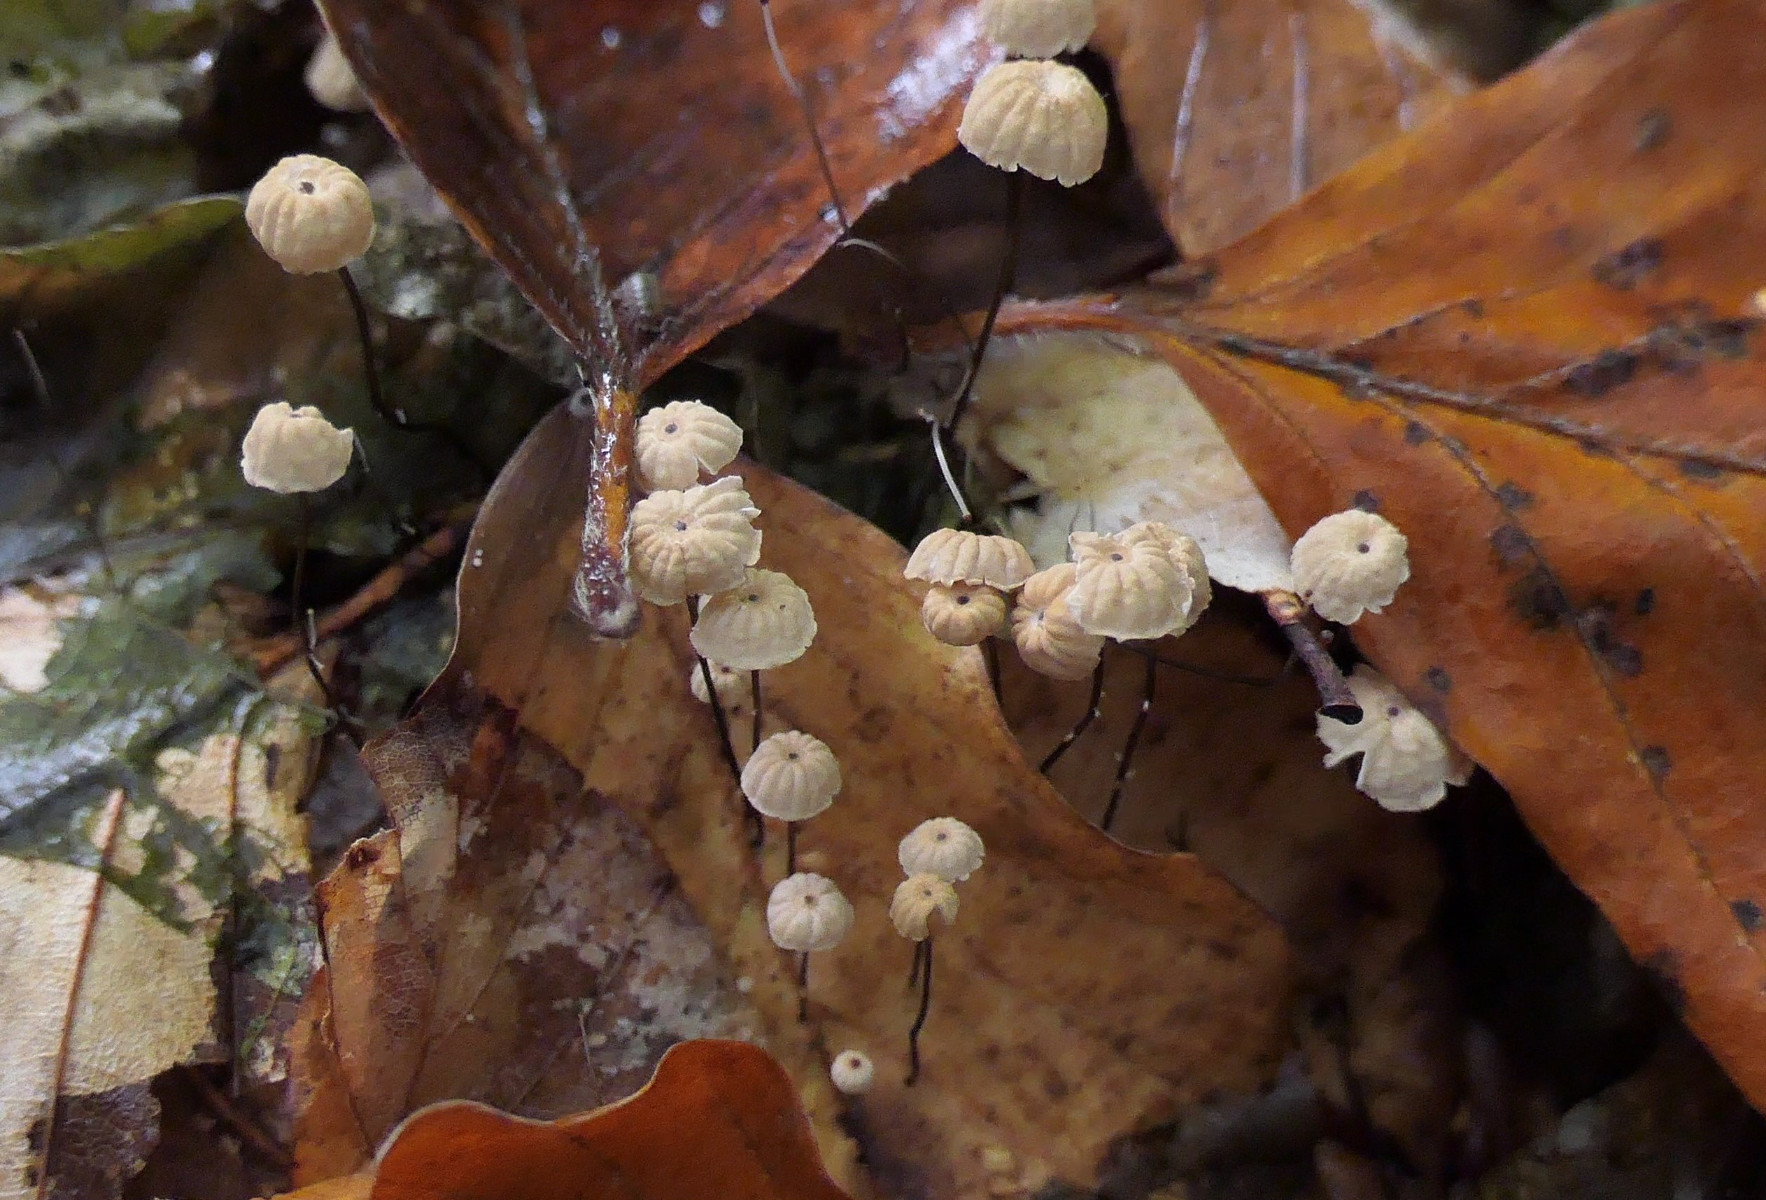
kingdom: Fungi
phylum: Basidiomycota
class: Agaricomycetes
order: Agaricales
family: Marasmiaceae
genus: Marasmius
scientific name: Marasmius bulliardii
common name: furet bruskhat
